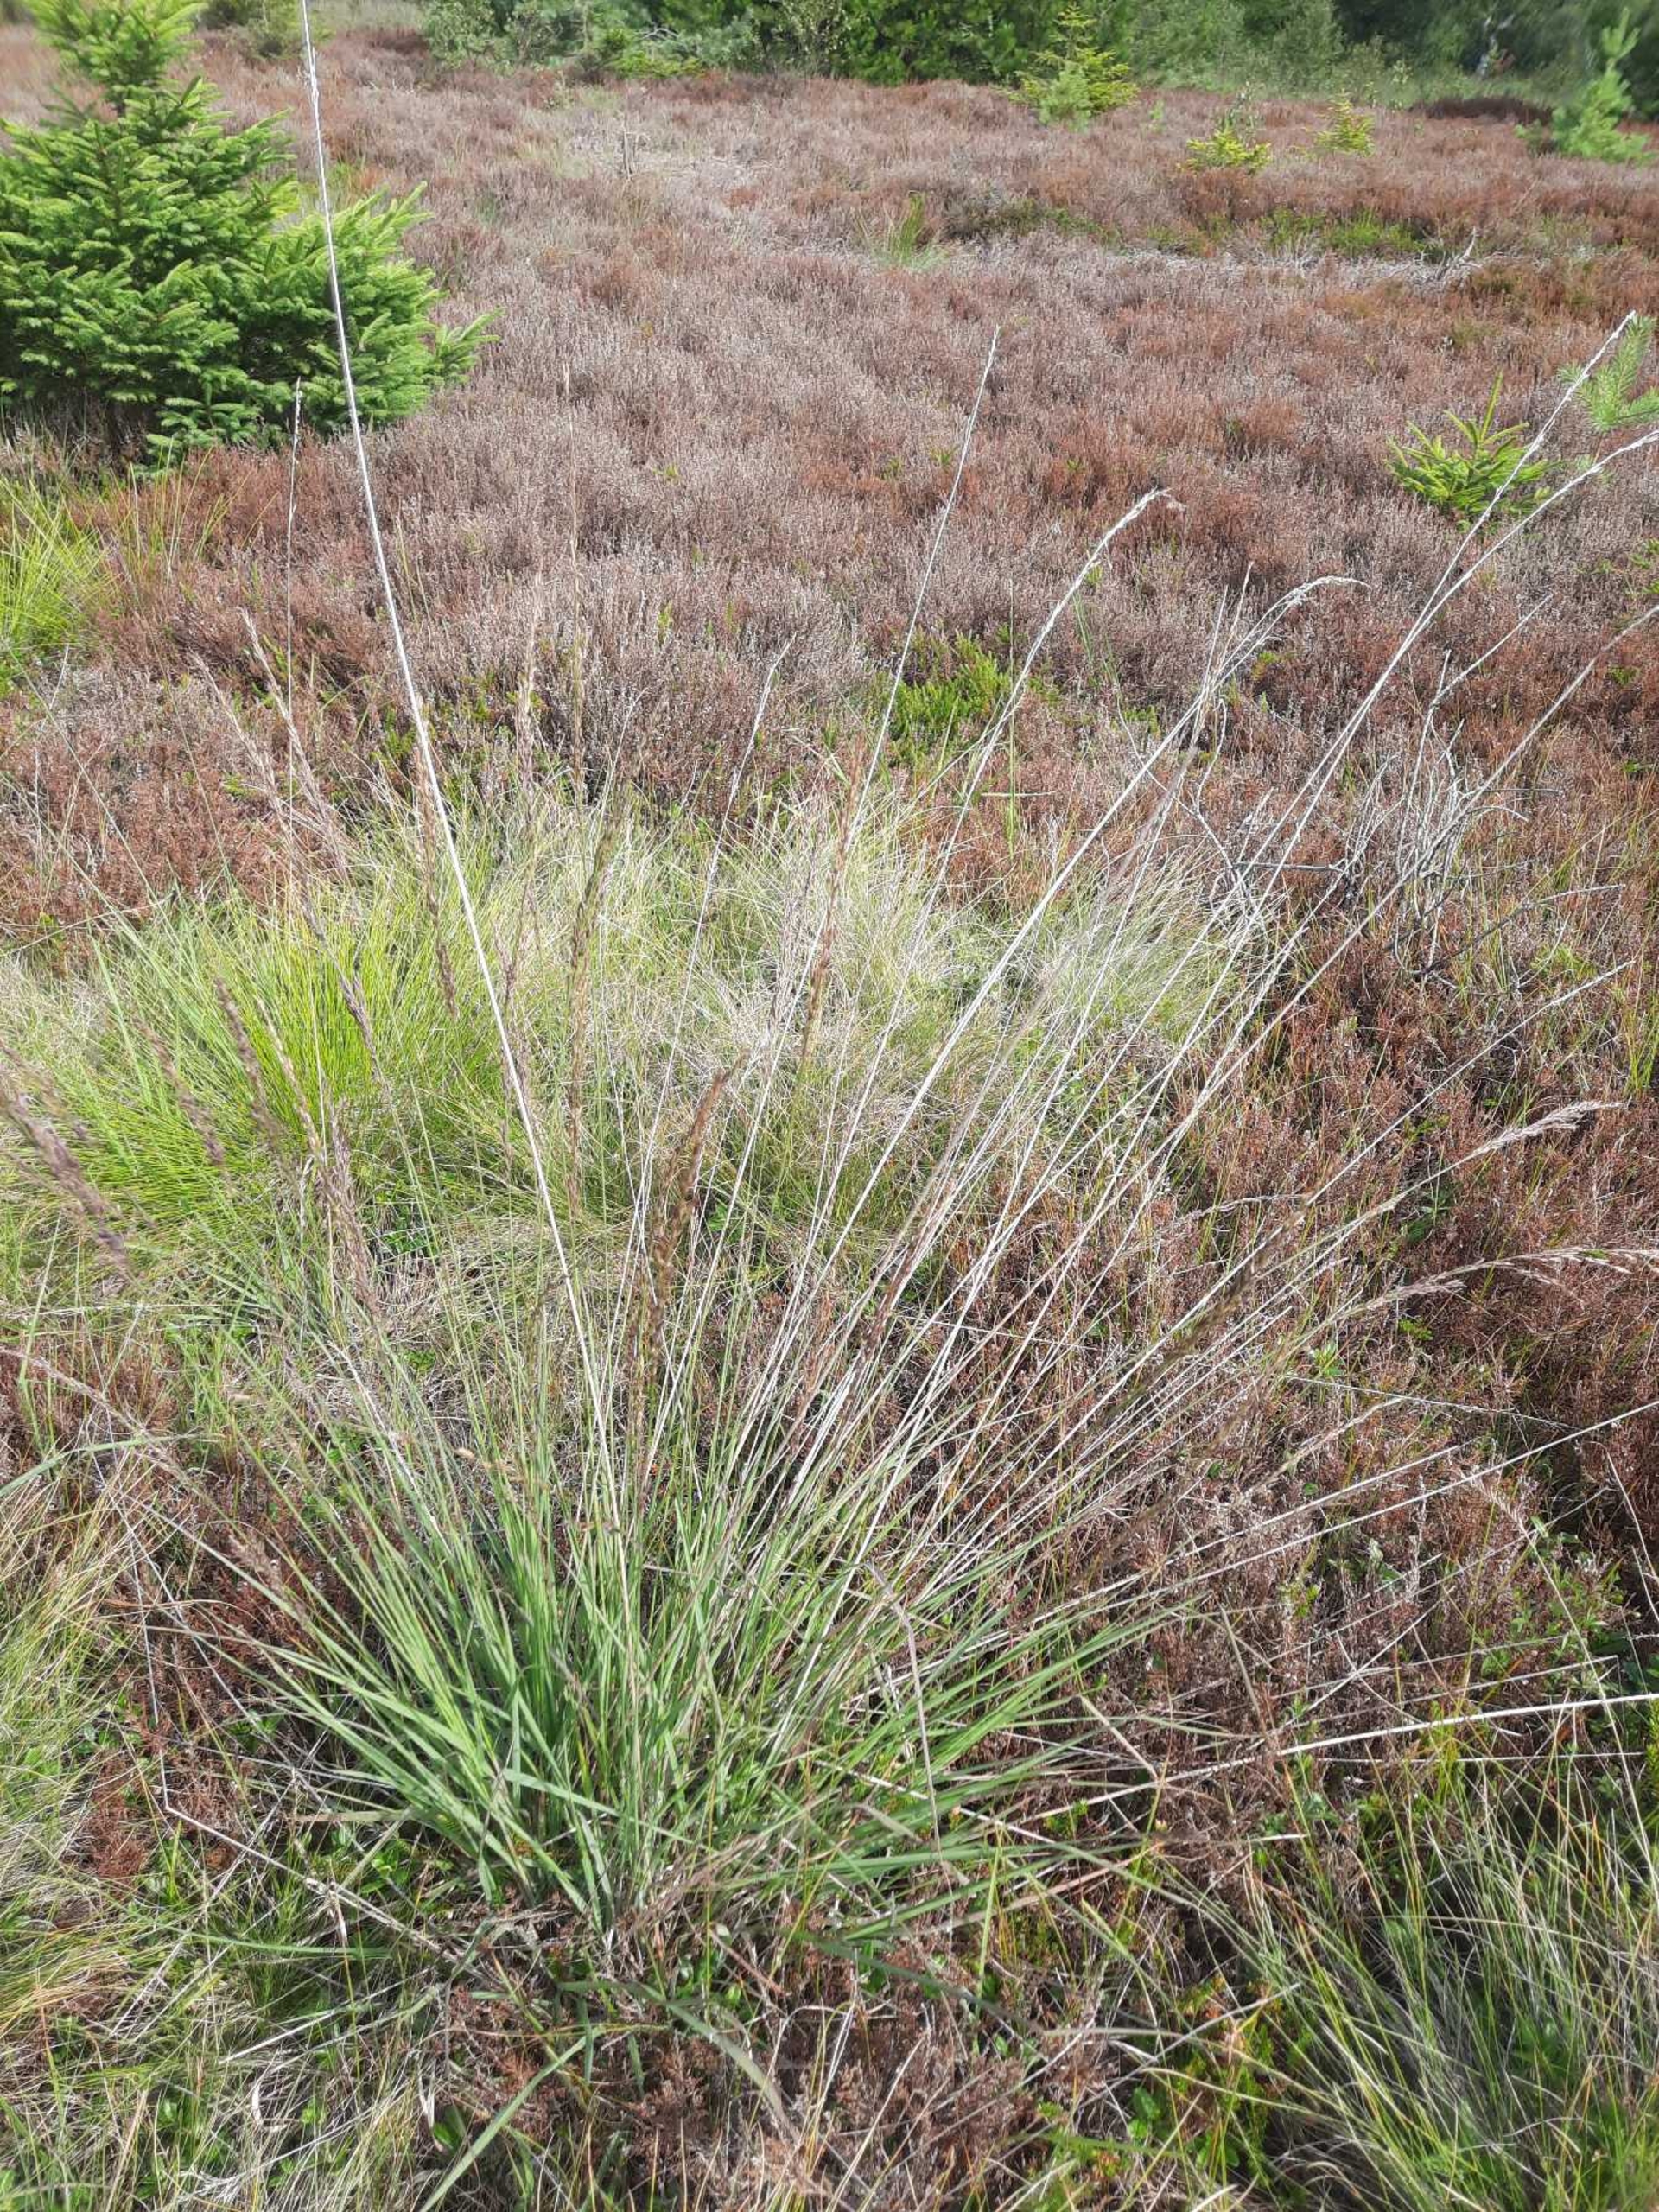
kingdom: Plantae
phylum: Tracheophyta
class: Liliopsida
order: Poales
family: Poaceae
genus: Molinia
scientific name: Molinia caerulea
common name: Blåtop
